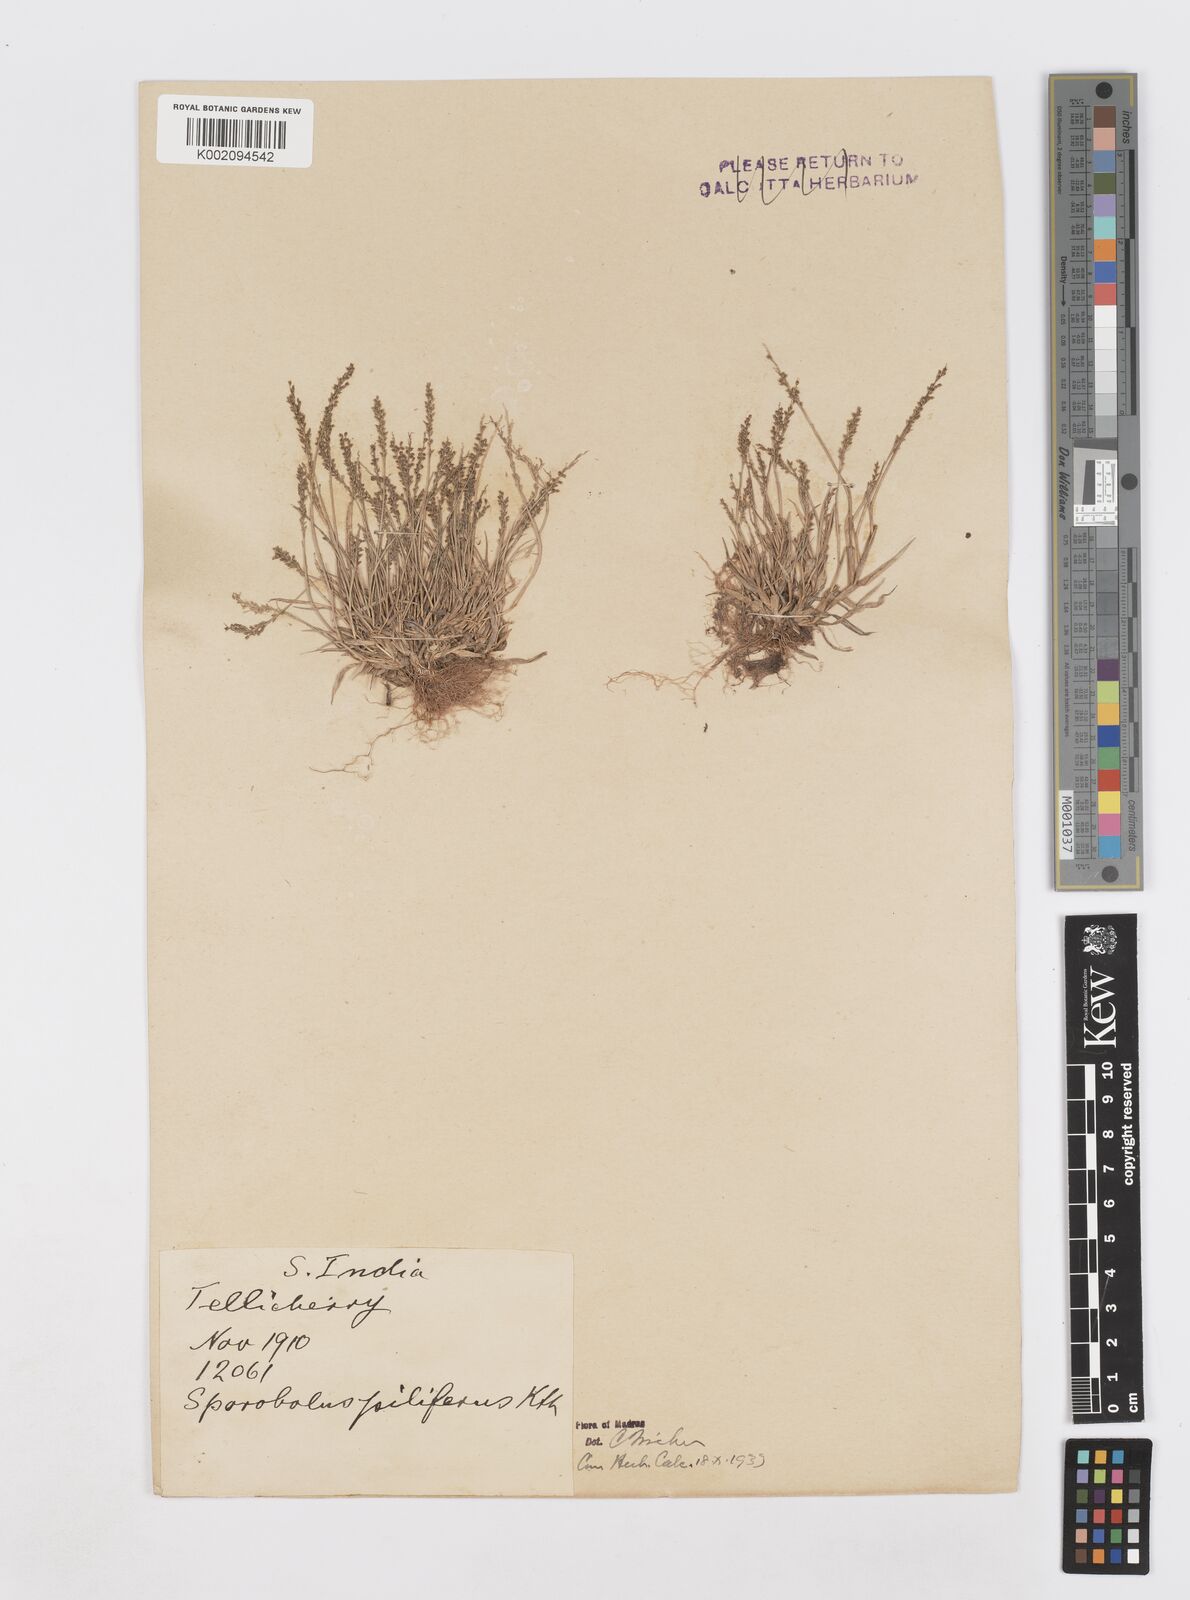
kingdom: Plantae
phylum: Tracheophyta
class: Liliopsida
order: Poales
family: Poaceae
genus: Sporobolus
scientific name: Sporobolus pilifer
